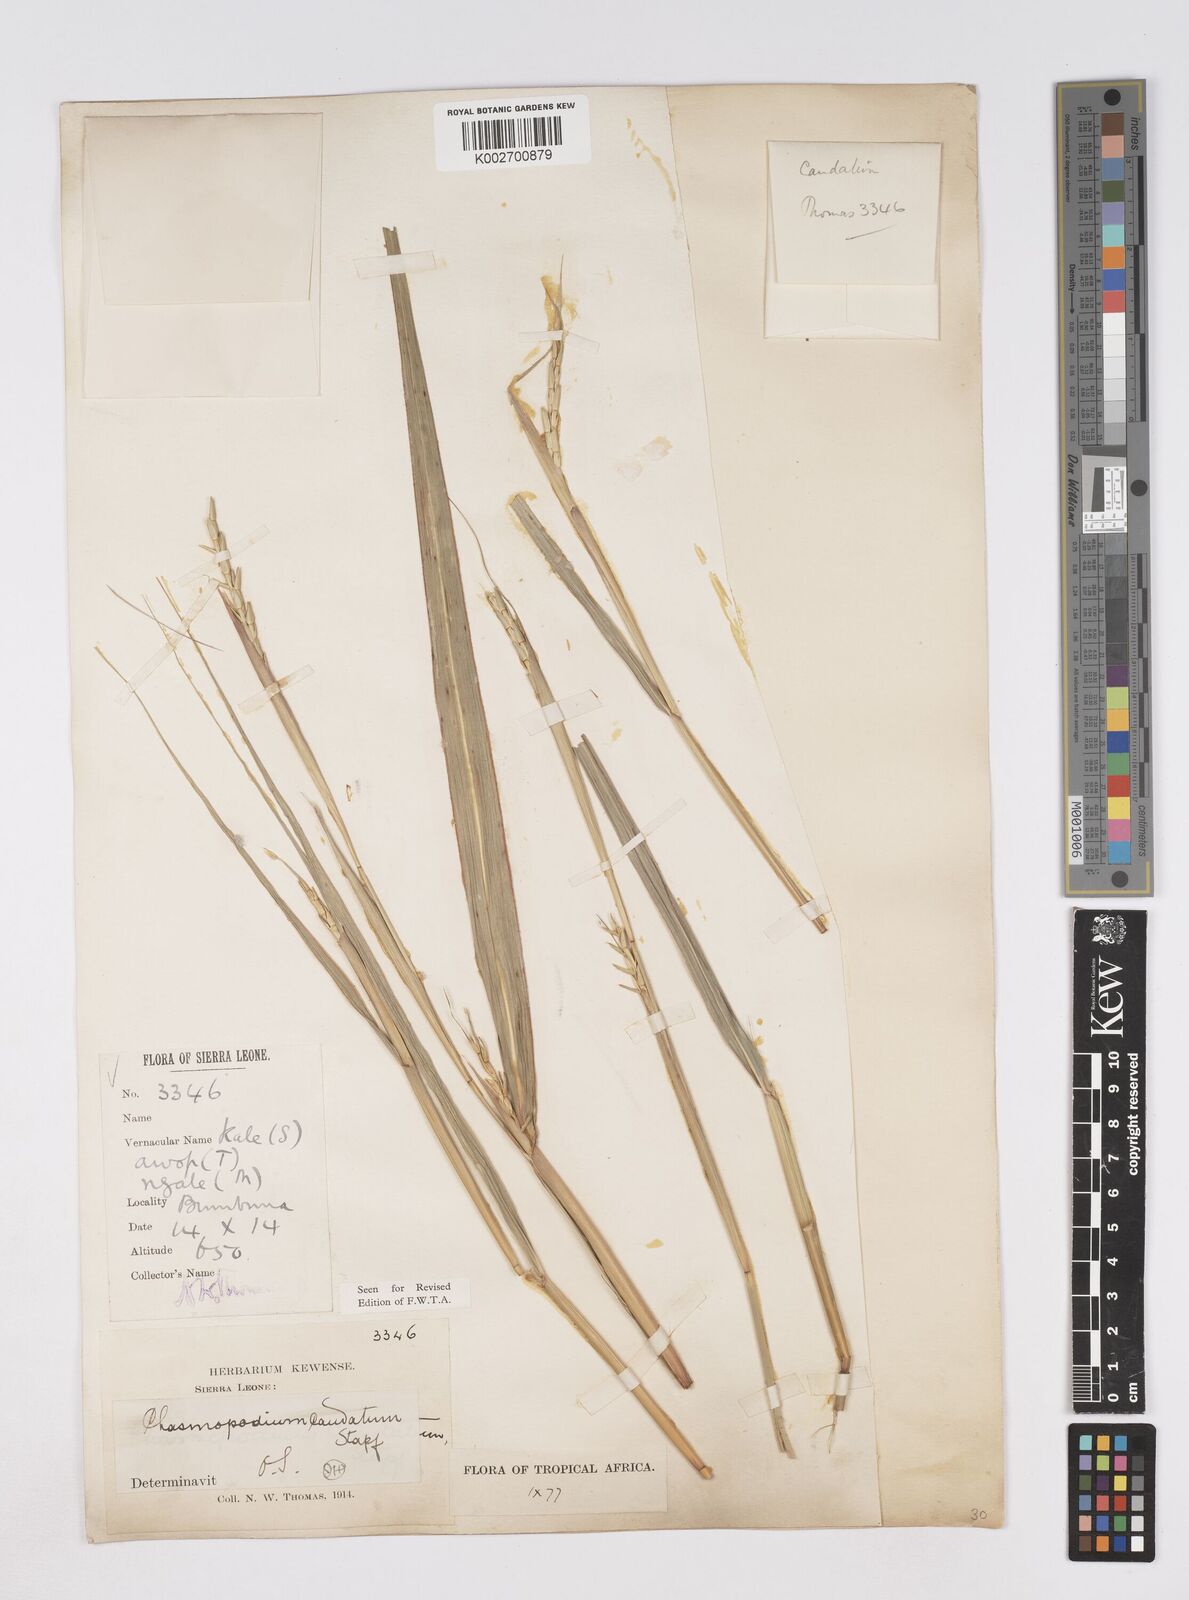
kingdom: Plantae
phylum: Tracheophyta
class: Liliopsida
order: Poales
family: Poaceae
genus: Chasmopodium
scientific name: Chasmopodium caudatum
